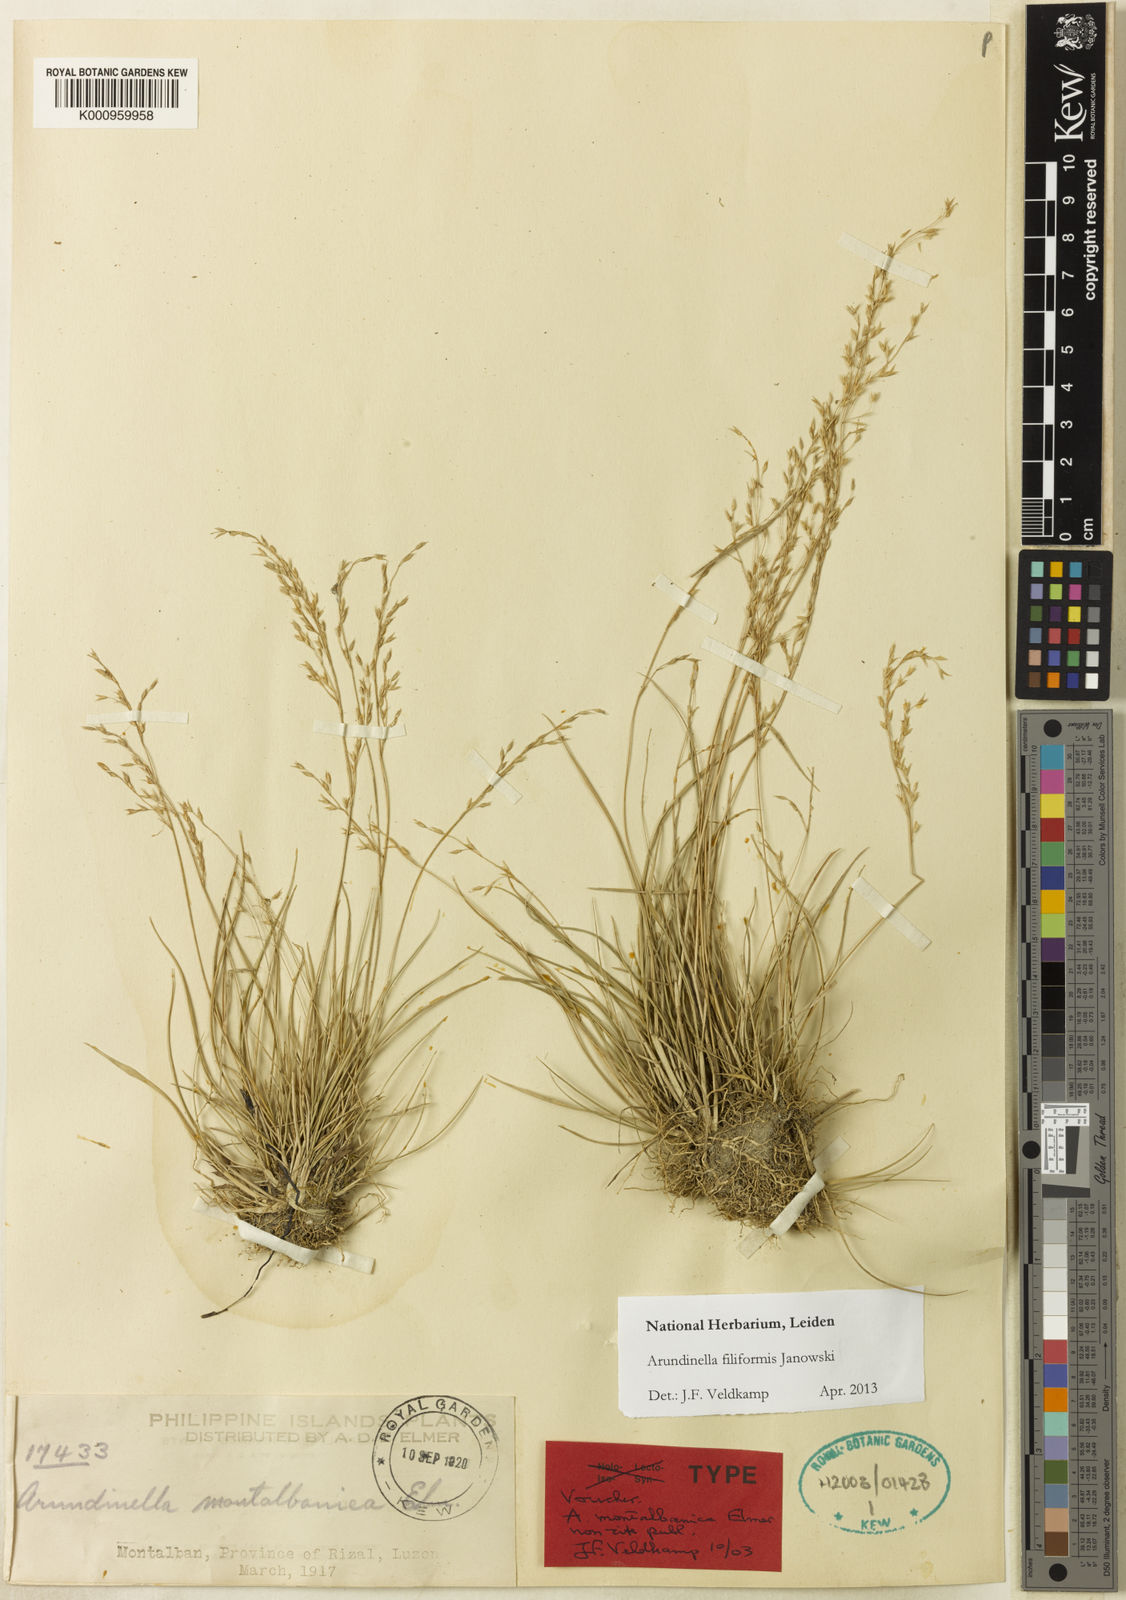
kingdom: Plantae
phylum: Tracheophyta
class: Liliopsida
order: Poales
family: Poaceae
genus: Arundinella
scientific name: Arundinella holcoides
